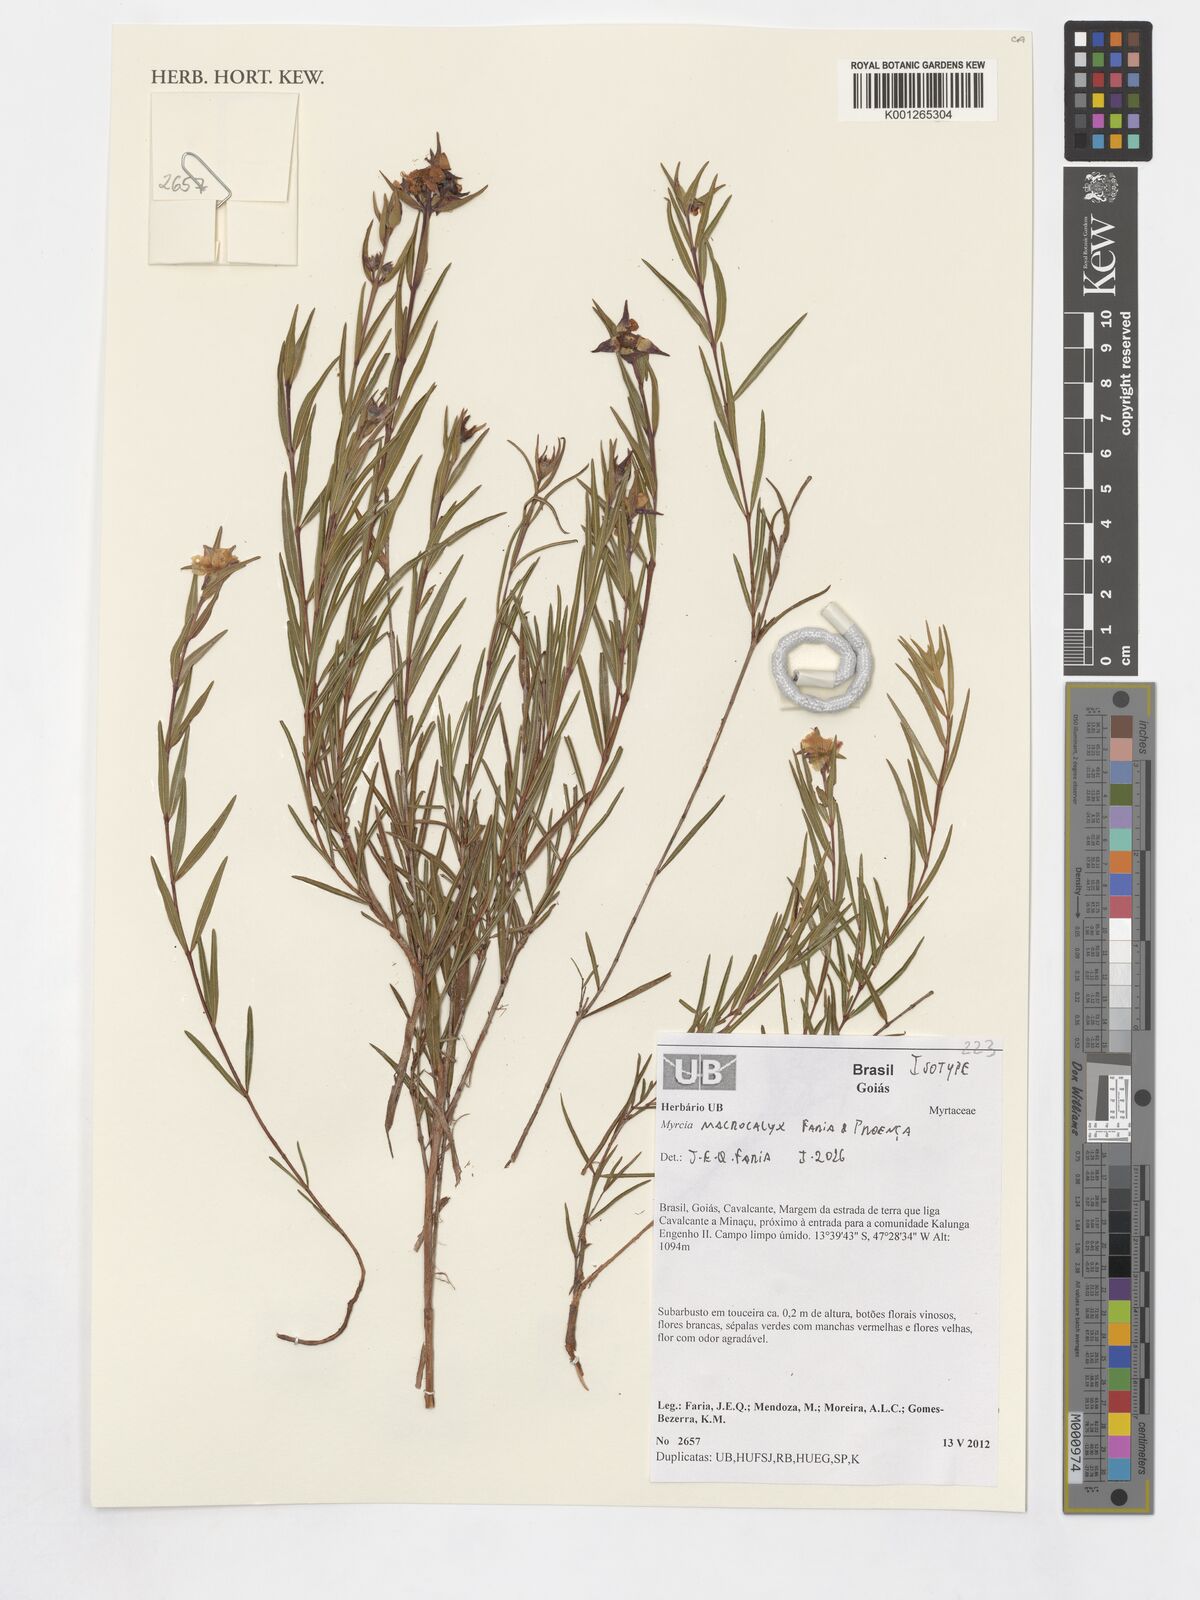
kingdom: Plantae
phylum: Tracheophyta
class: Magnoliopsida
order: Myrtales
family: Myrtaceae
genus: Myrcia
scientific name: Myrcia macrocalyx
